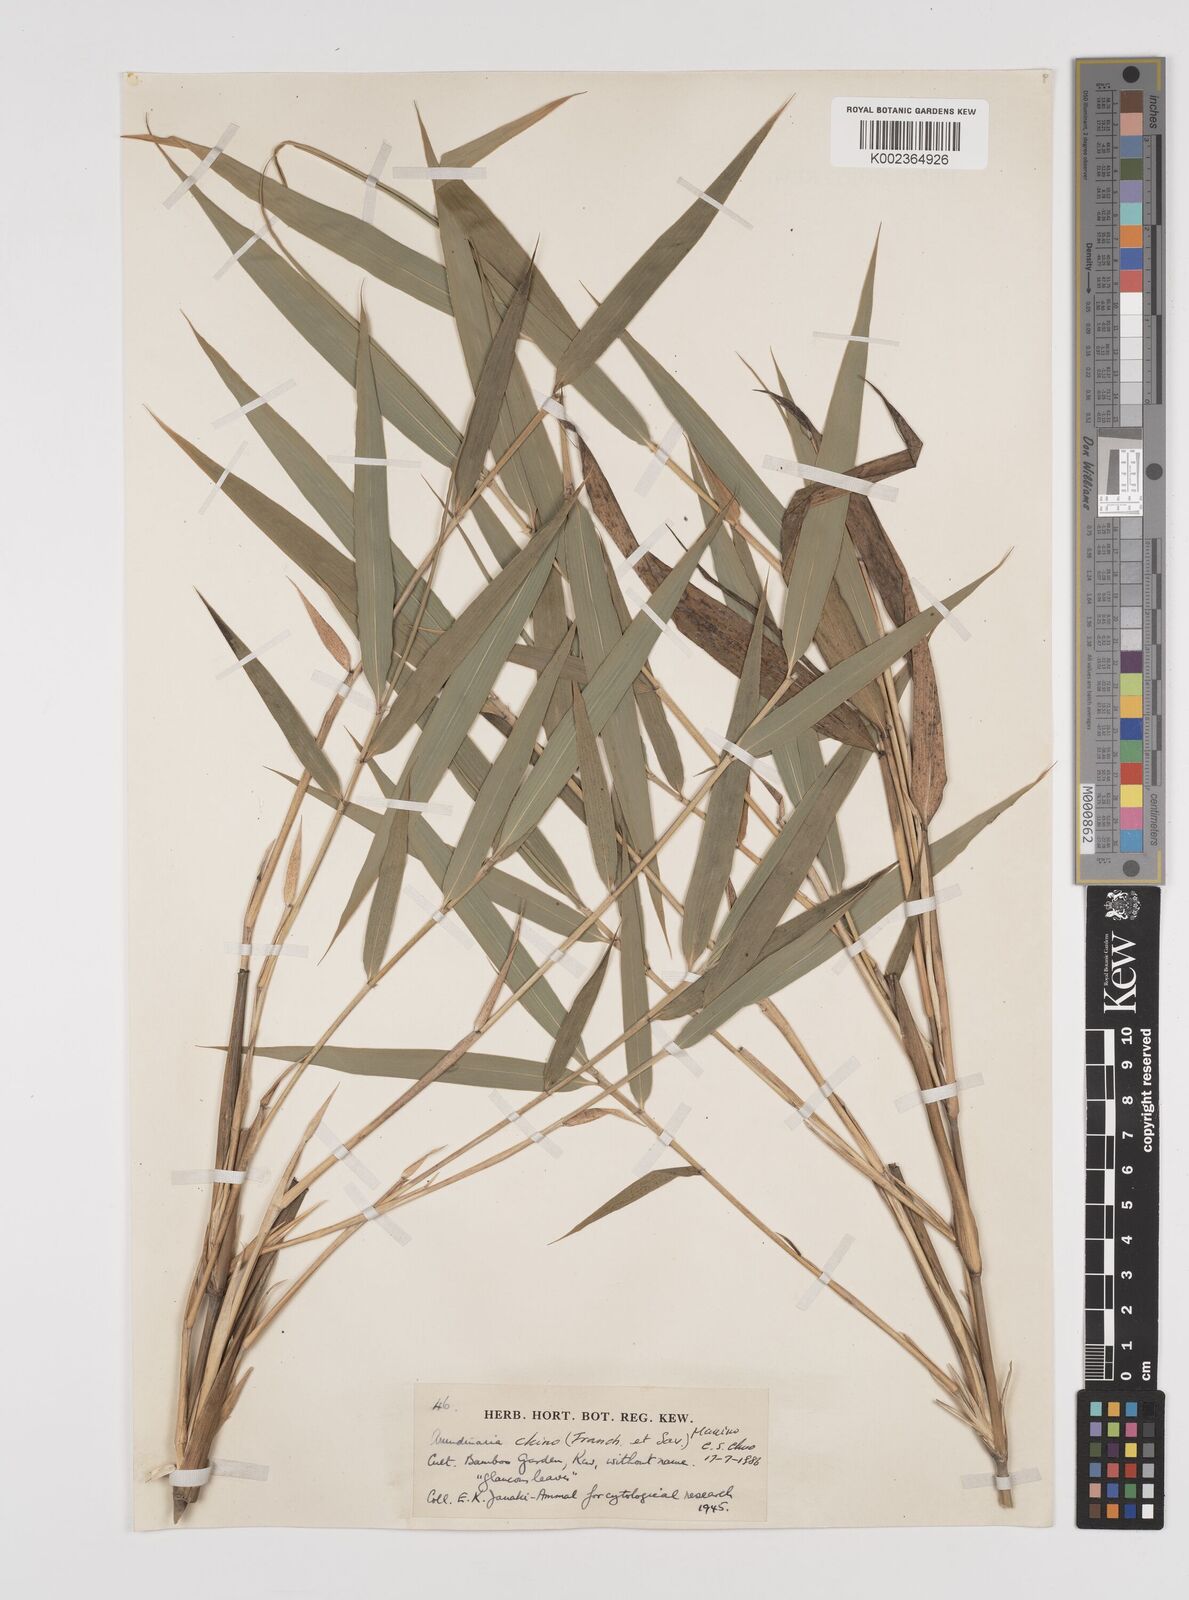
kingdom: Plantae
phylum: Tracheophyta
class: Liliopsida
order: Poales
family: Poaceae
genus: Pleioblastus
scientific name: Pleioblastus argenteostriatus
